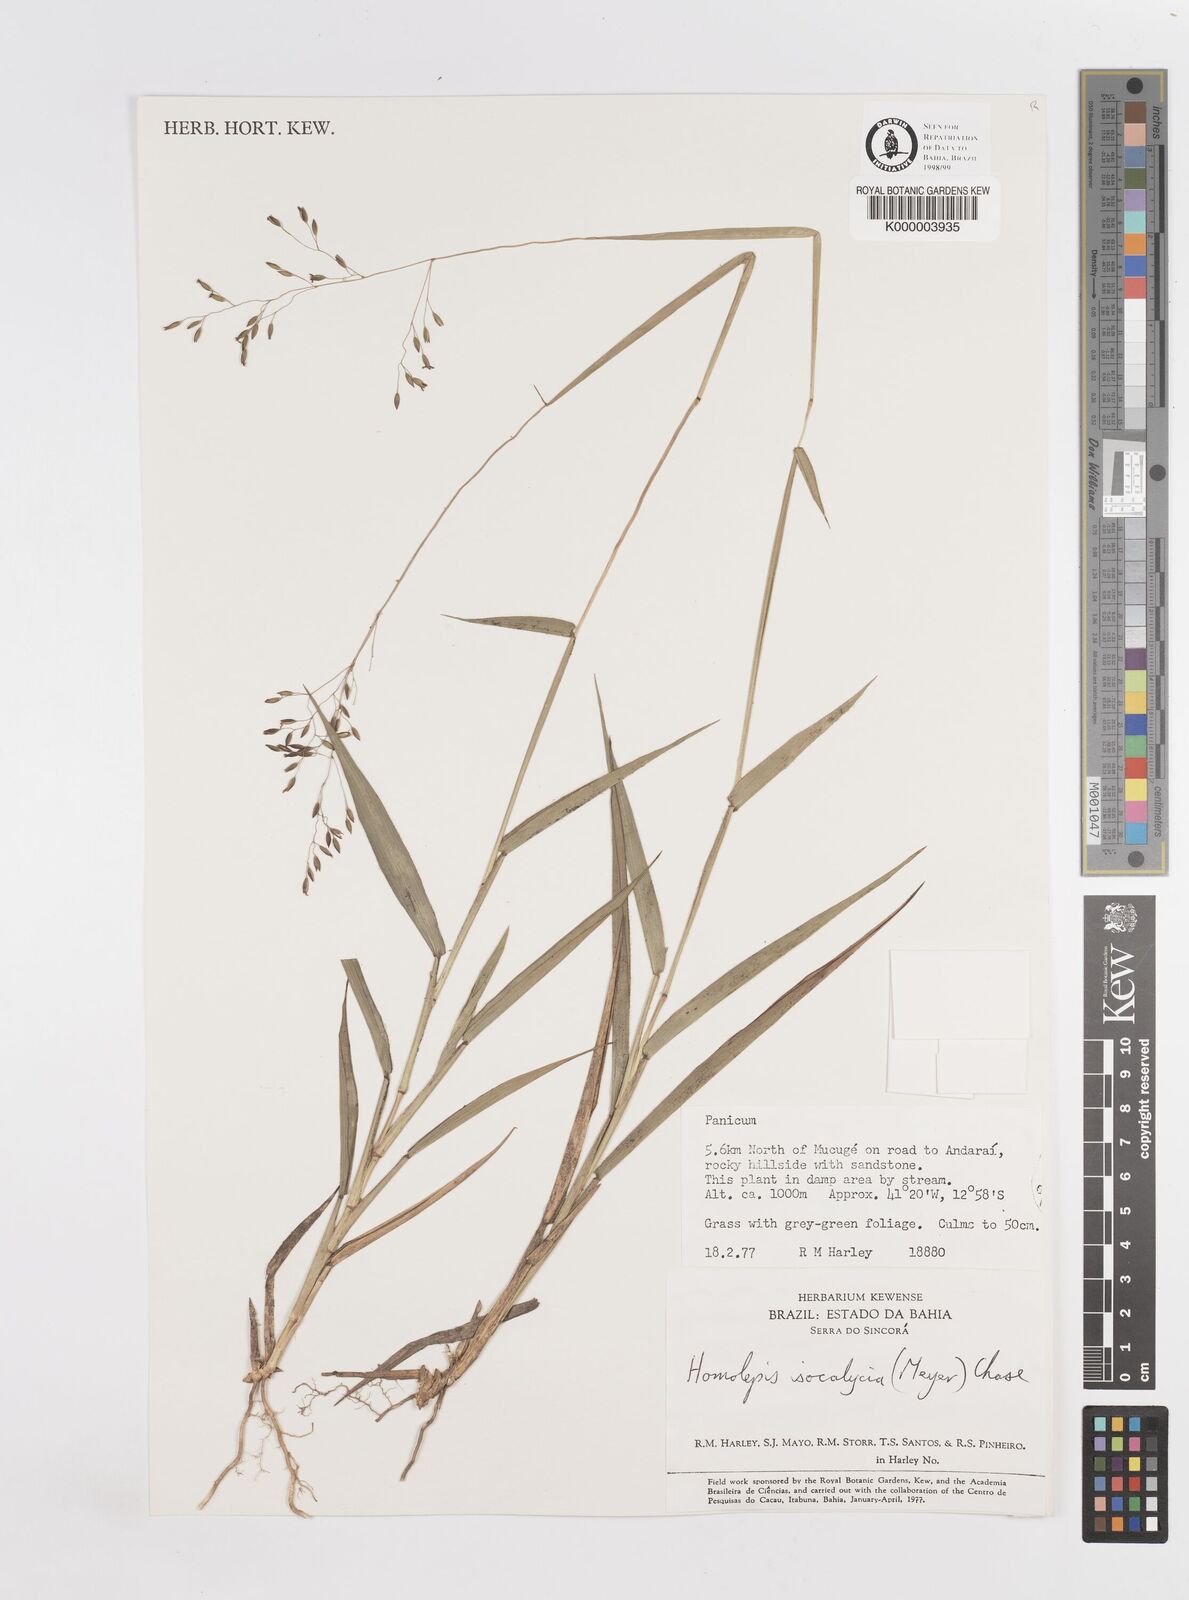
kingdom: Plantae
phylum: Tracheophyta
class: Liliopsida
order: Poales
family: Poaceae
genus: Homolepis
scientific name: Homolepis
